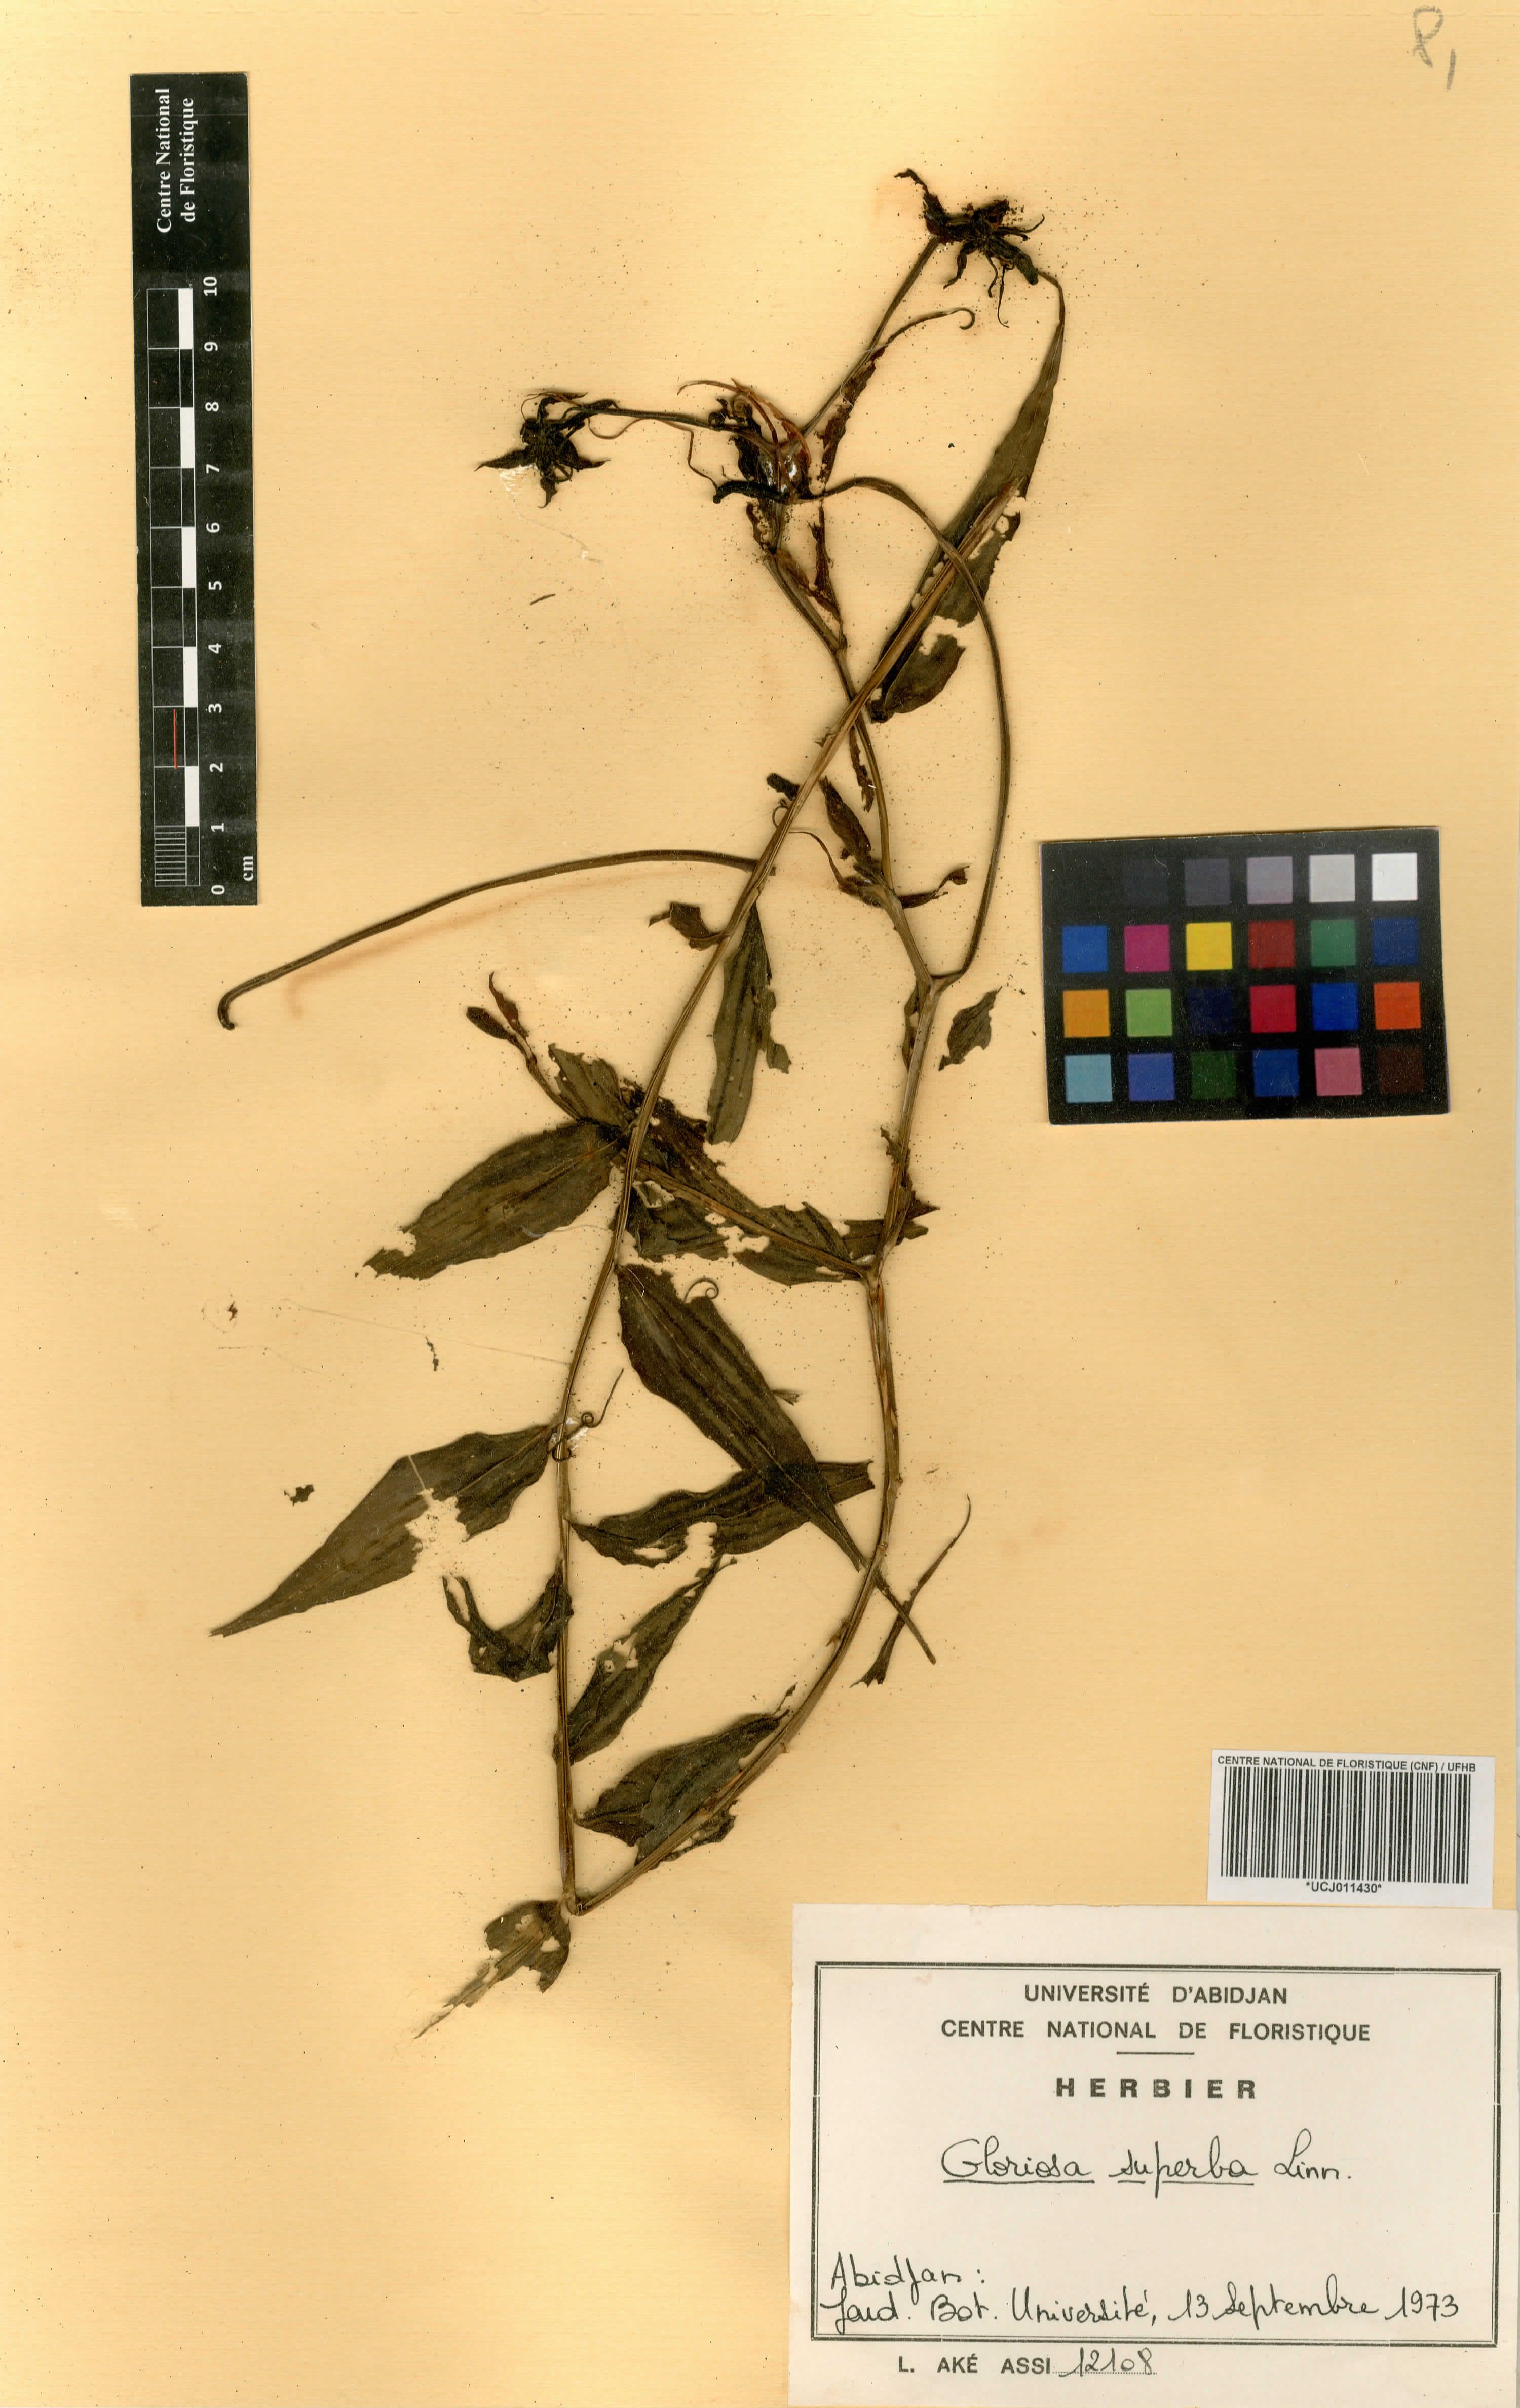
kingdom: Plantae
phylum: Tracheophyta
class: Liliopsida
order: Liliales
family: Colchicaceae
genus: Gloriosa
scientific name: Gloriosa superba
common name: Flame lily
